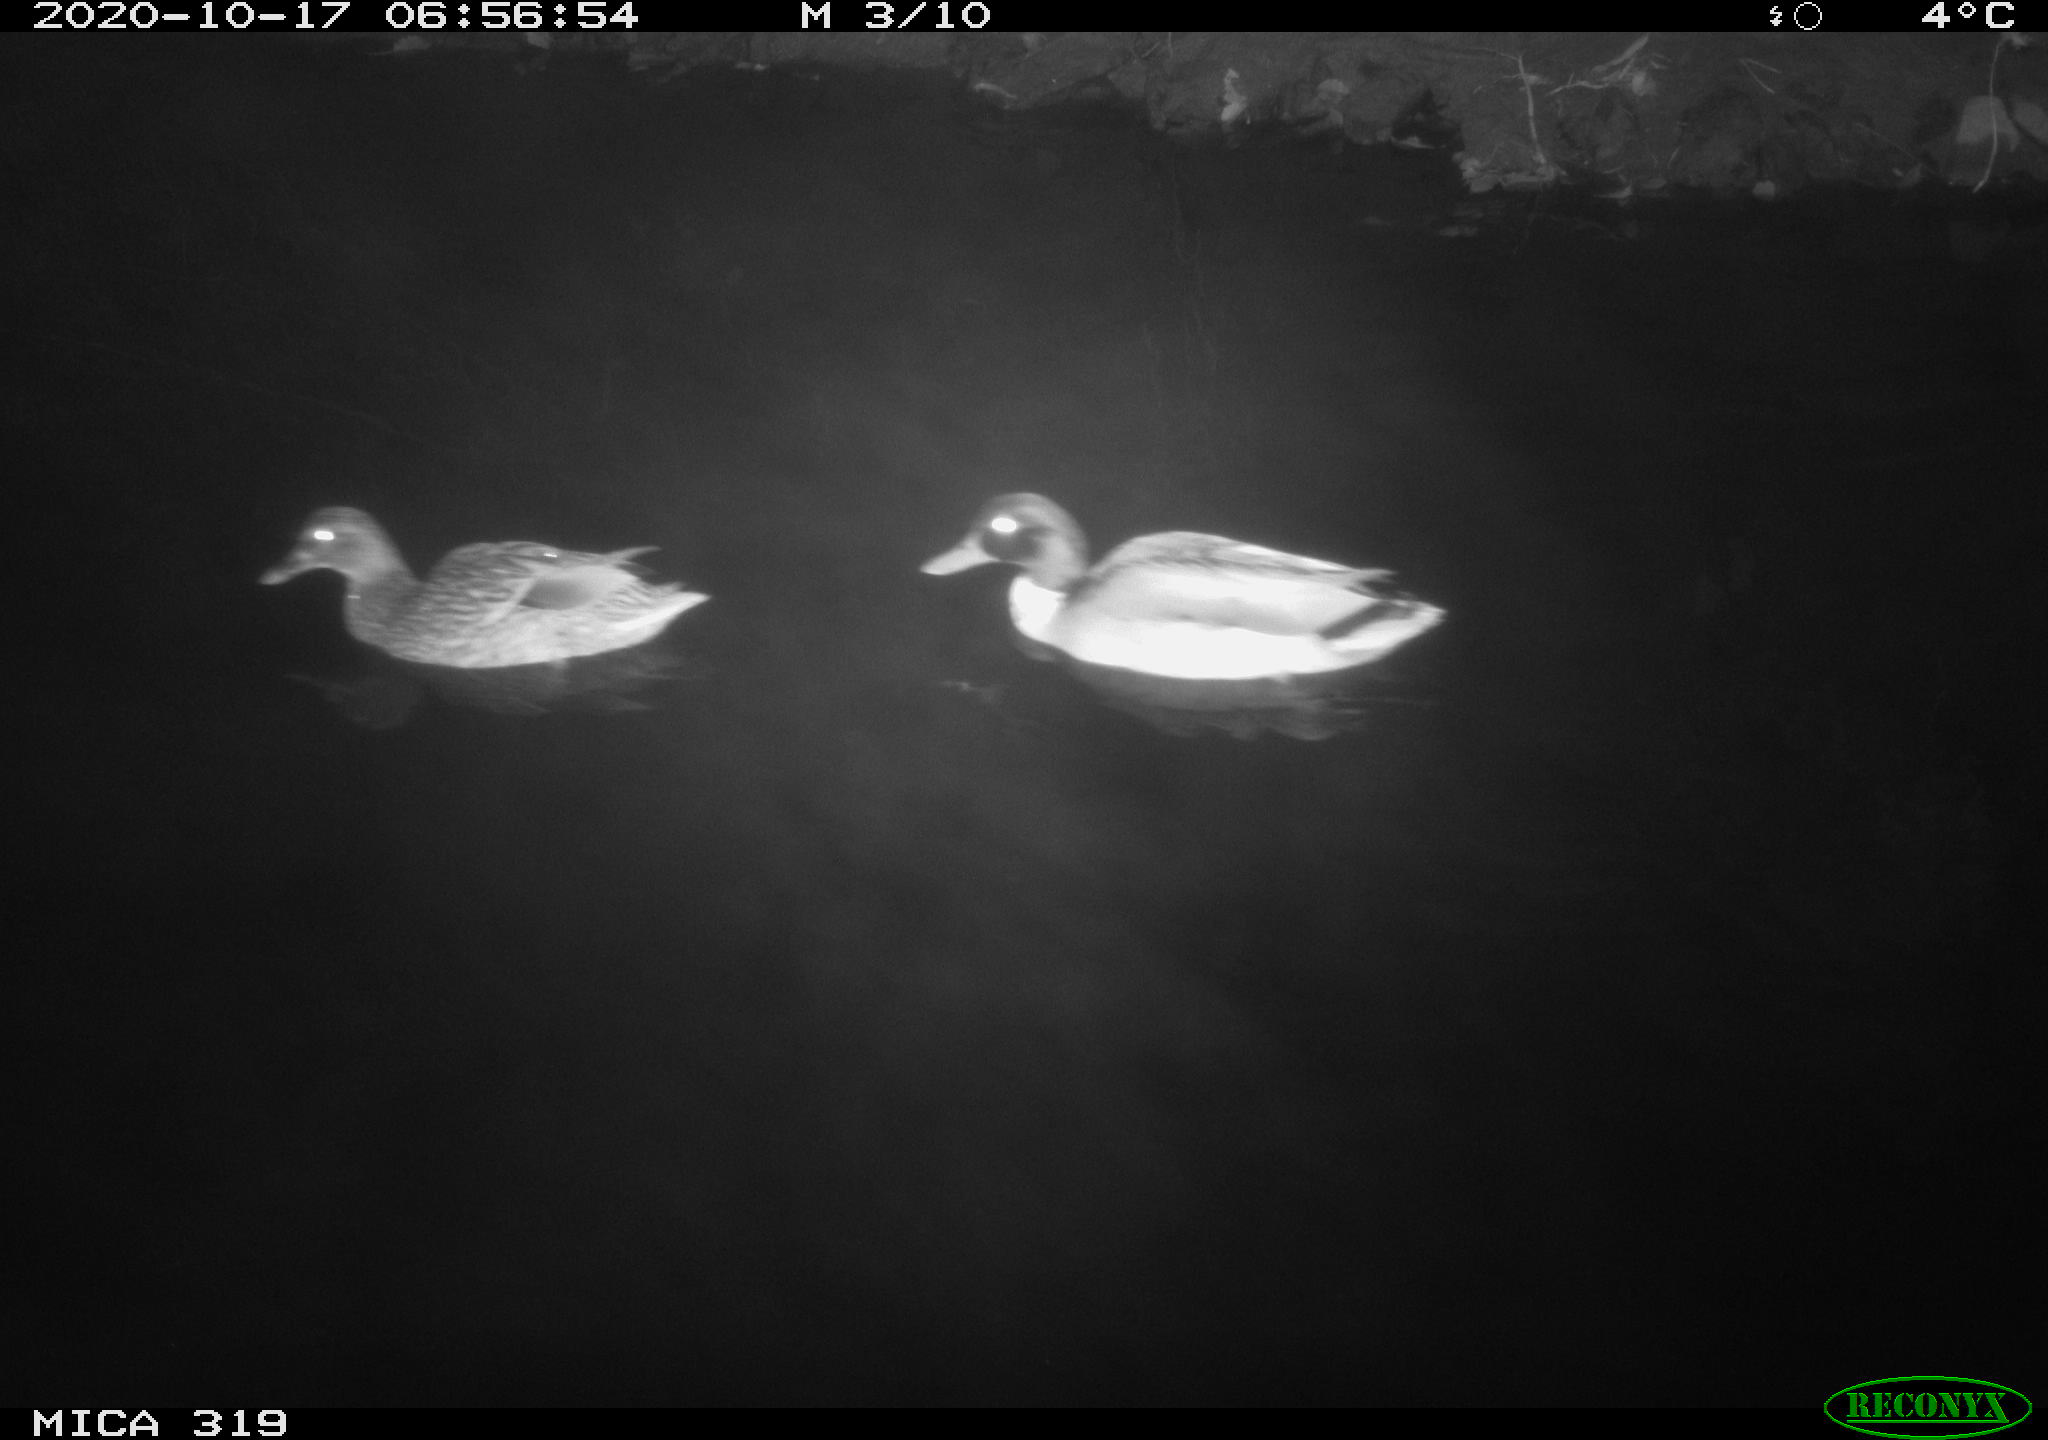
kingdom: Animalia
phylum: Chordata
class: Aves
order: Anseriformes
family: Anatidae
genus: Anas
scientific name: Anas platyrhynchos
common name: Mallard
